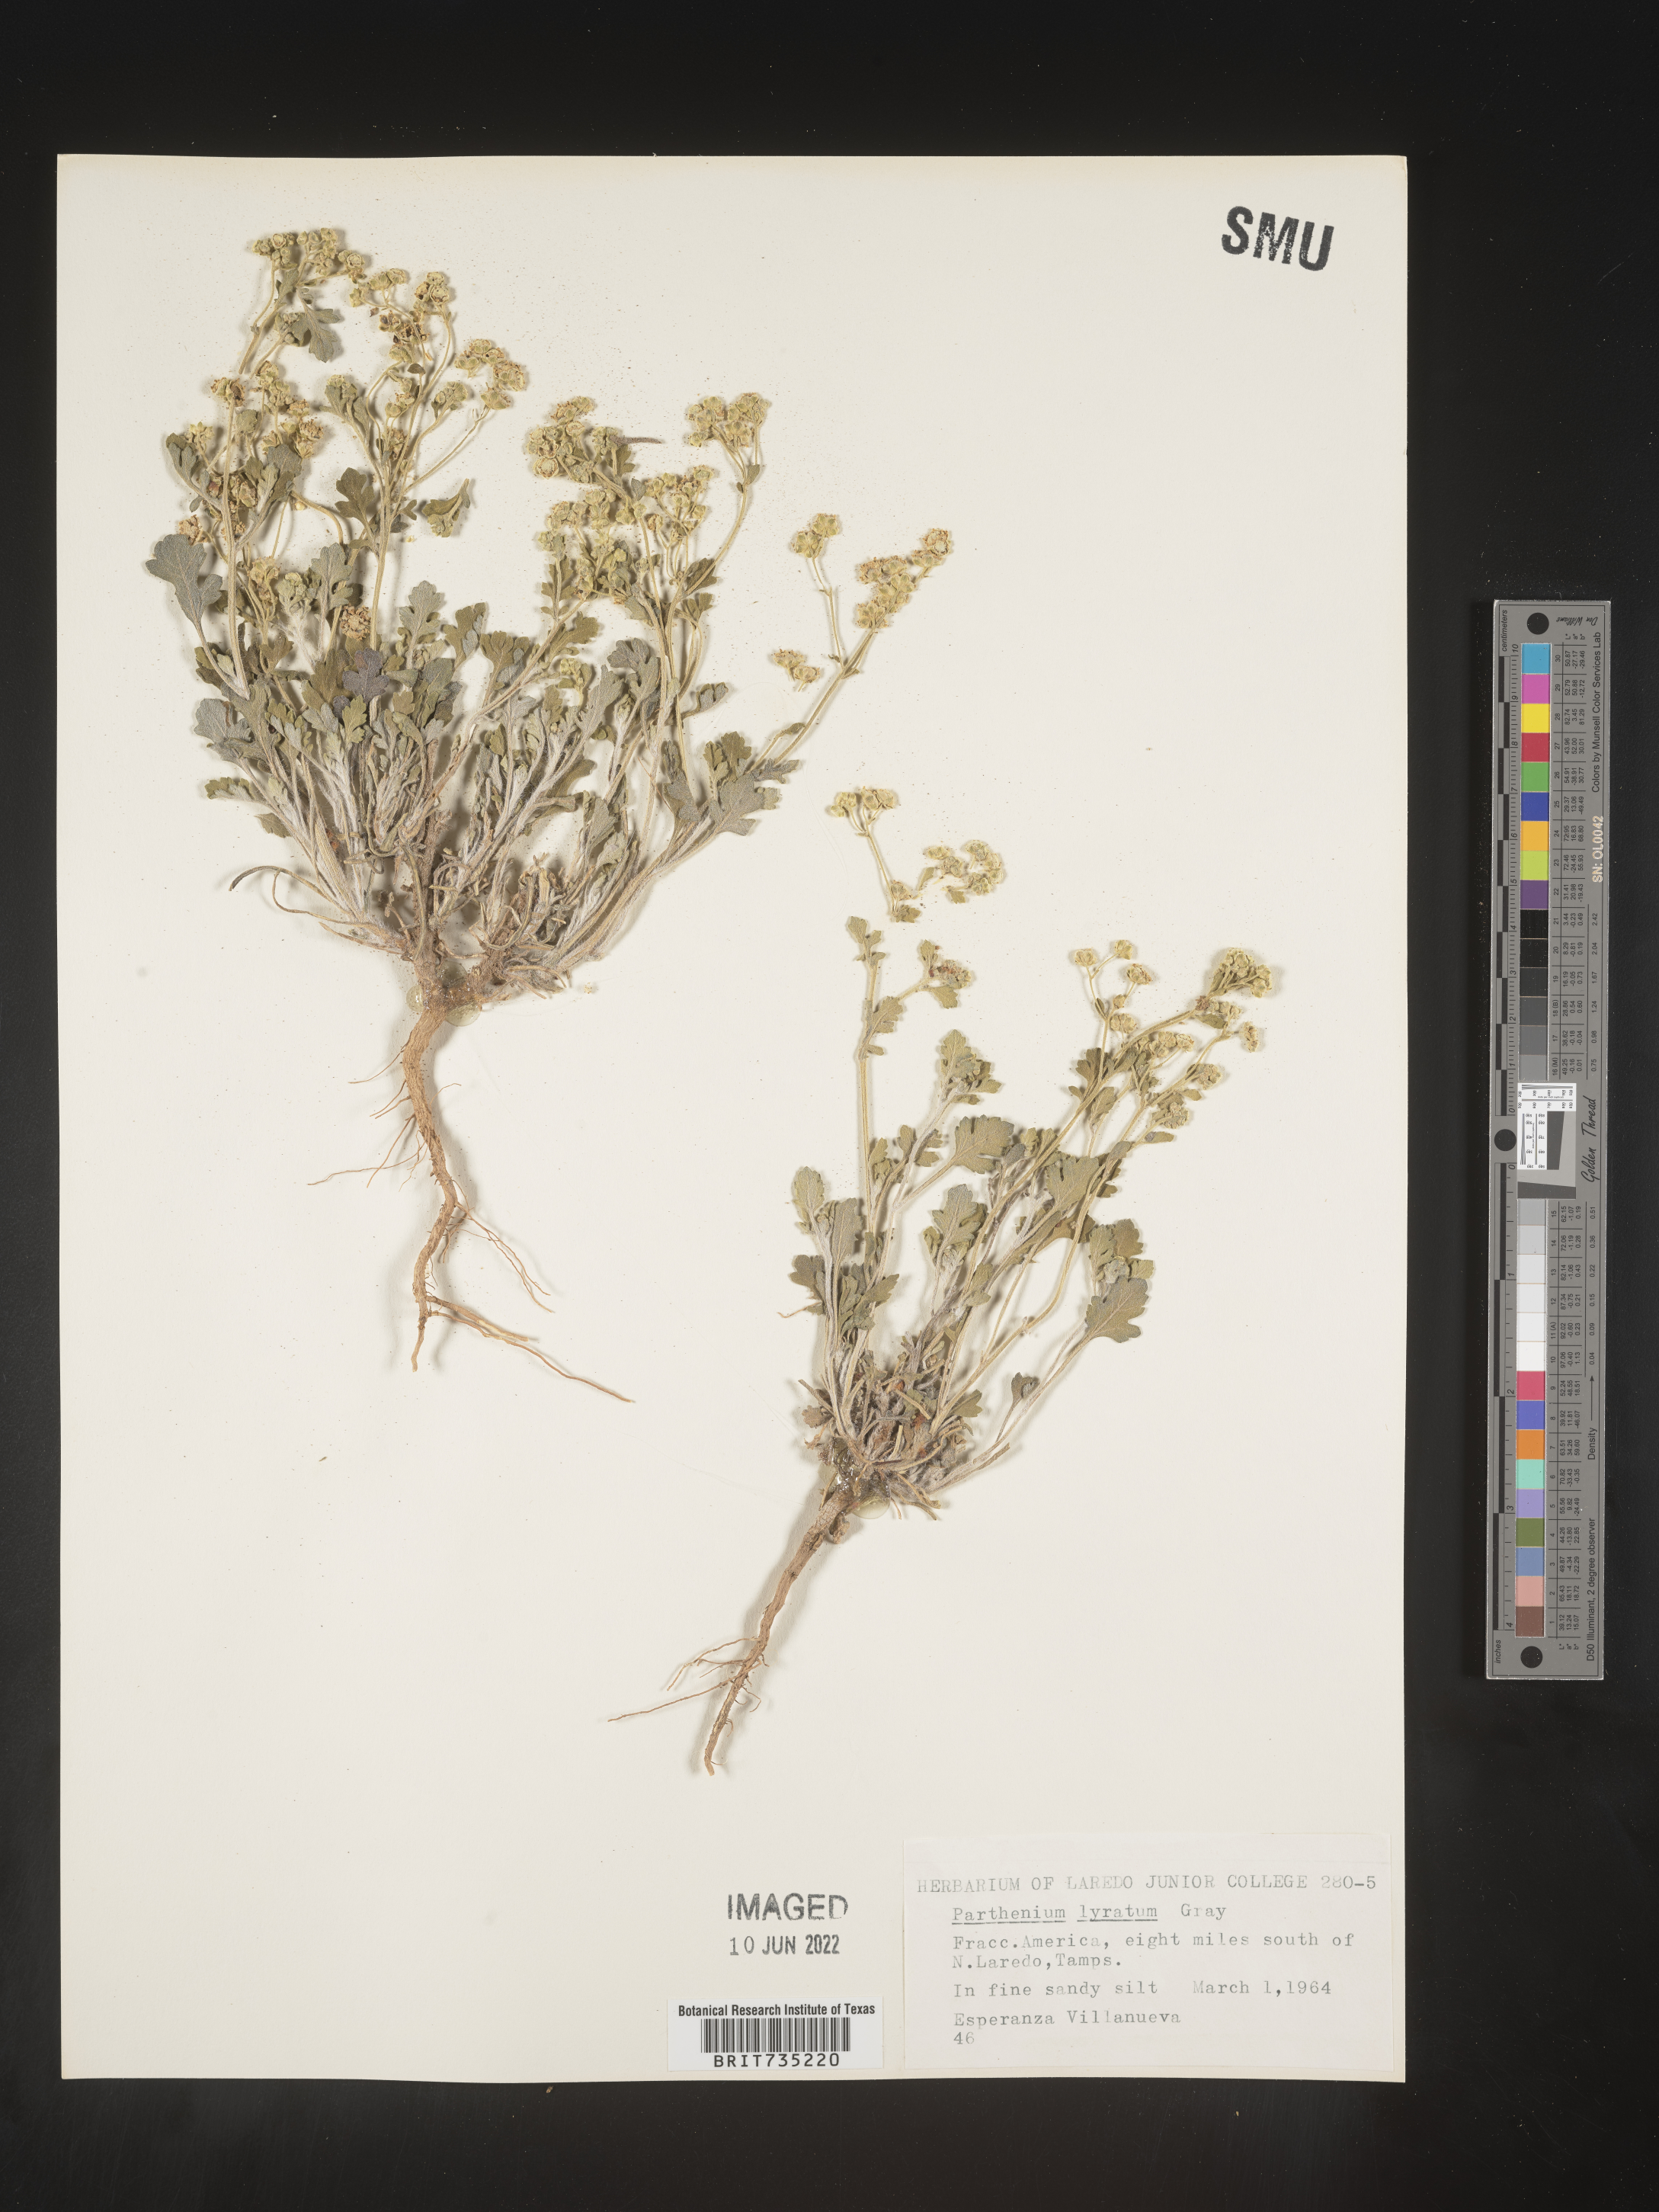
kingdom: Plantae
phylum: Tracheophyta
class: Magnoliopsida
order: Asterales
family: Asteraceae
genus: Parthenium
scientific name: Parthenium
